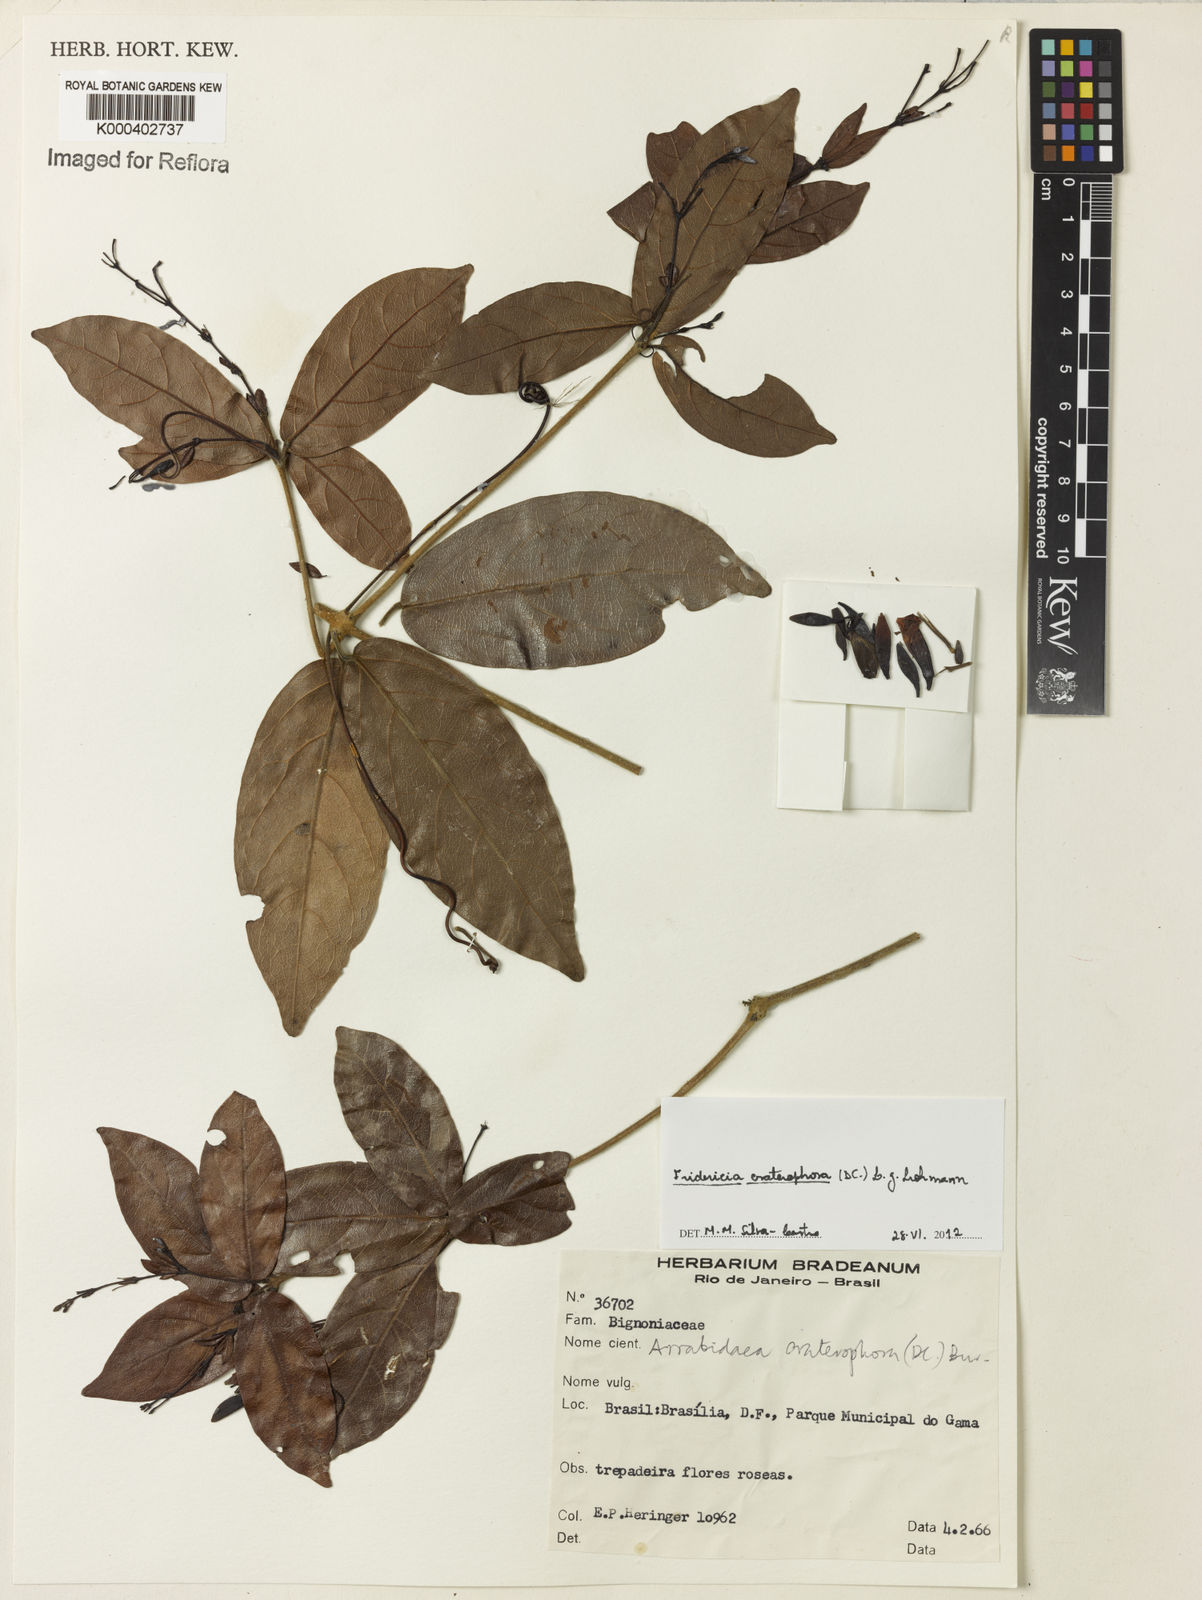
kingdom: Plantae
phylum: Tracheophyta
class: Magnoliopsida
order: Lamiales
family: Bignoniaceae
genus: Fridericia
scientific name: Fridericia craterophora
